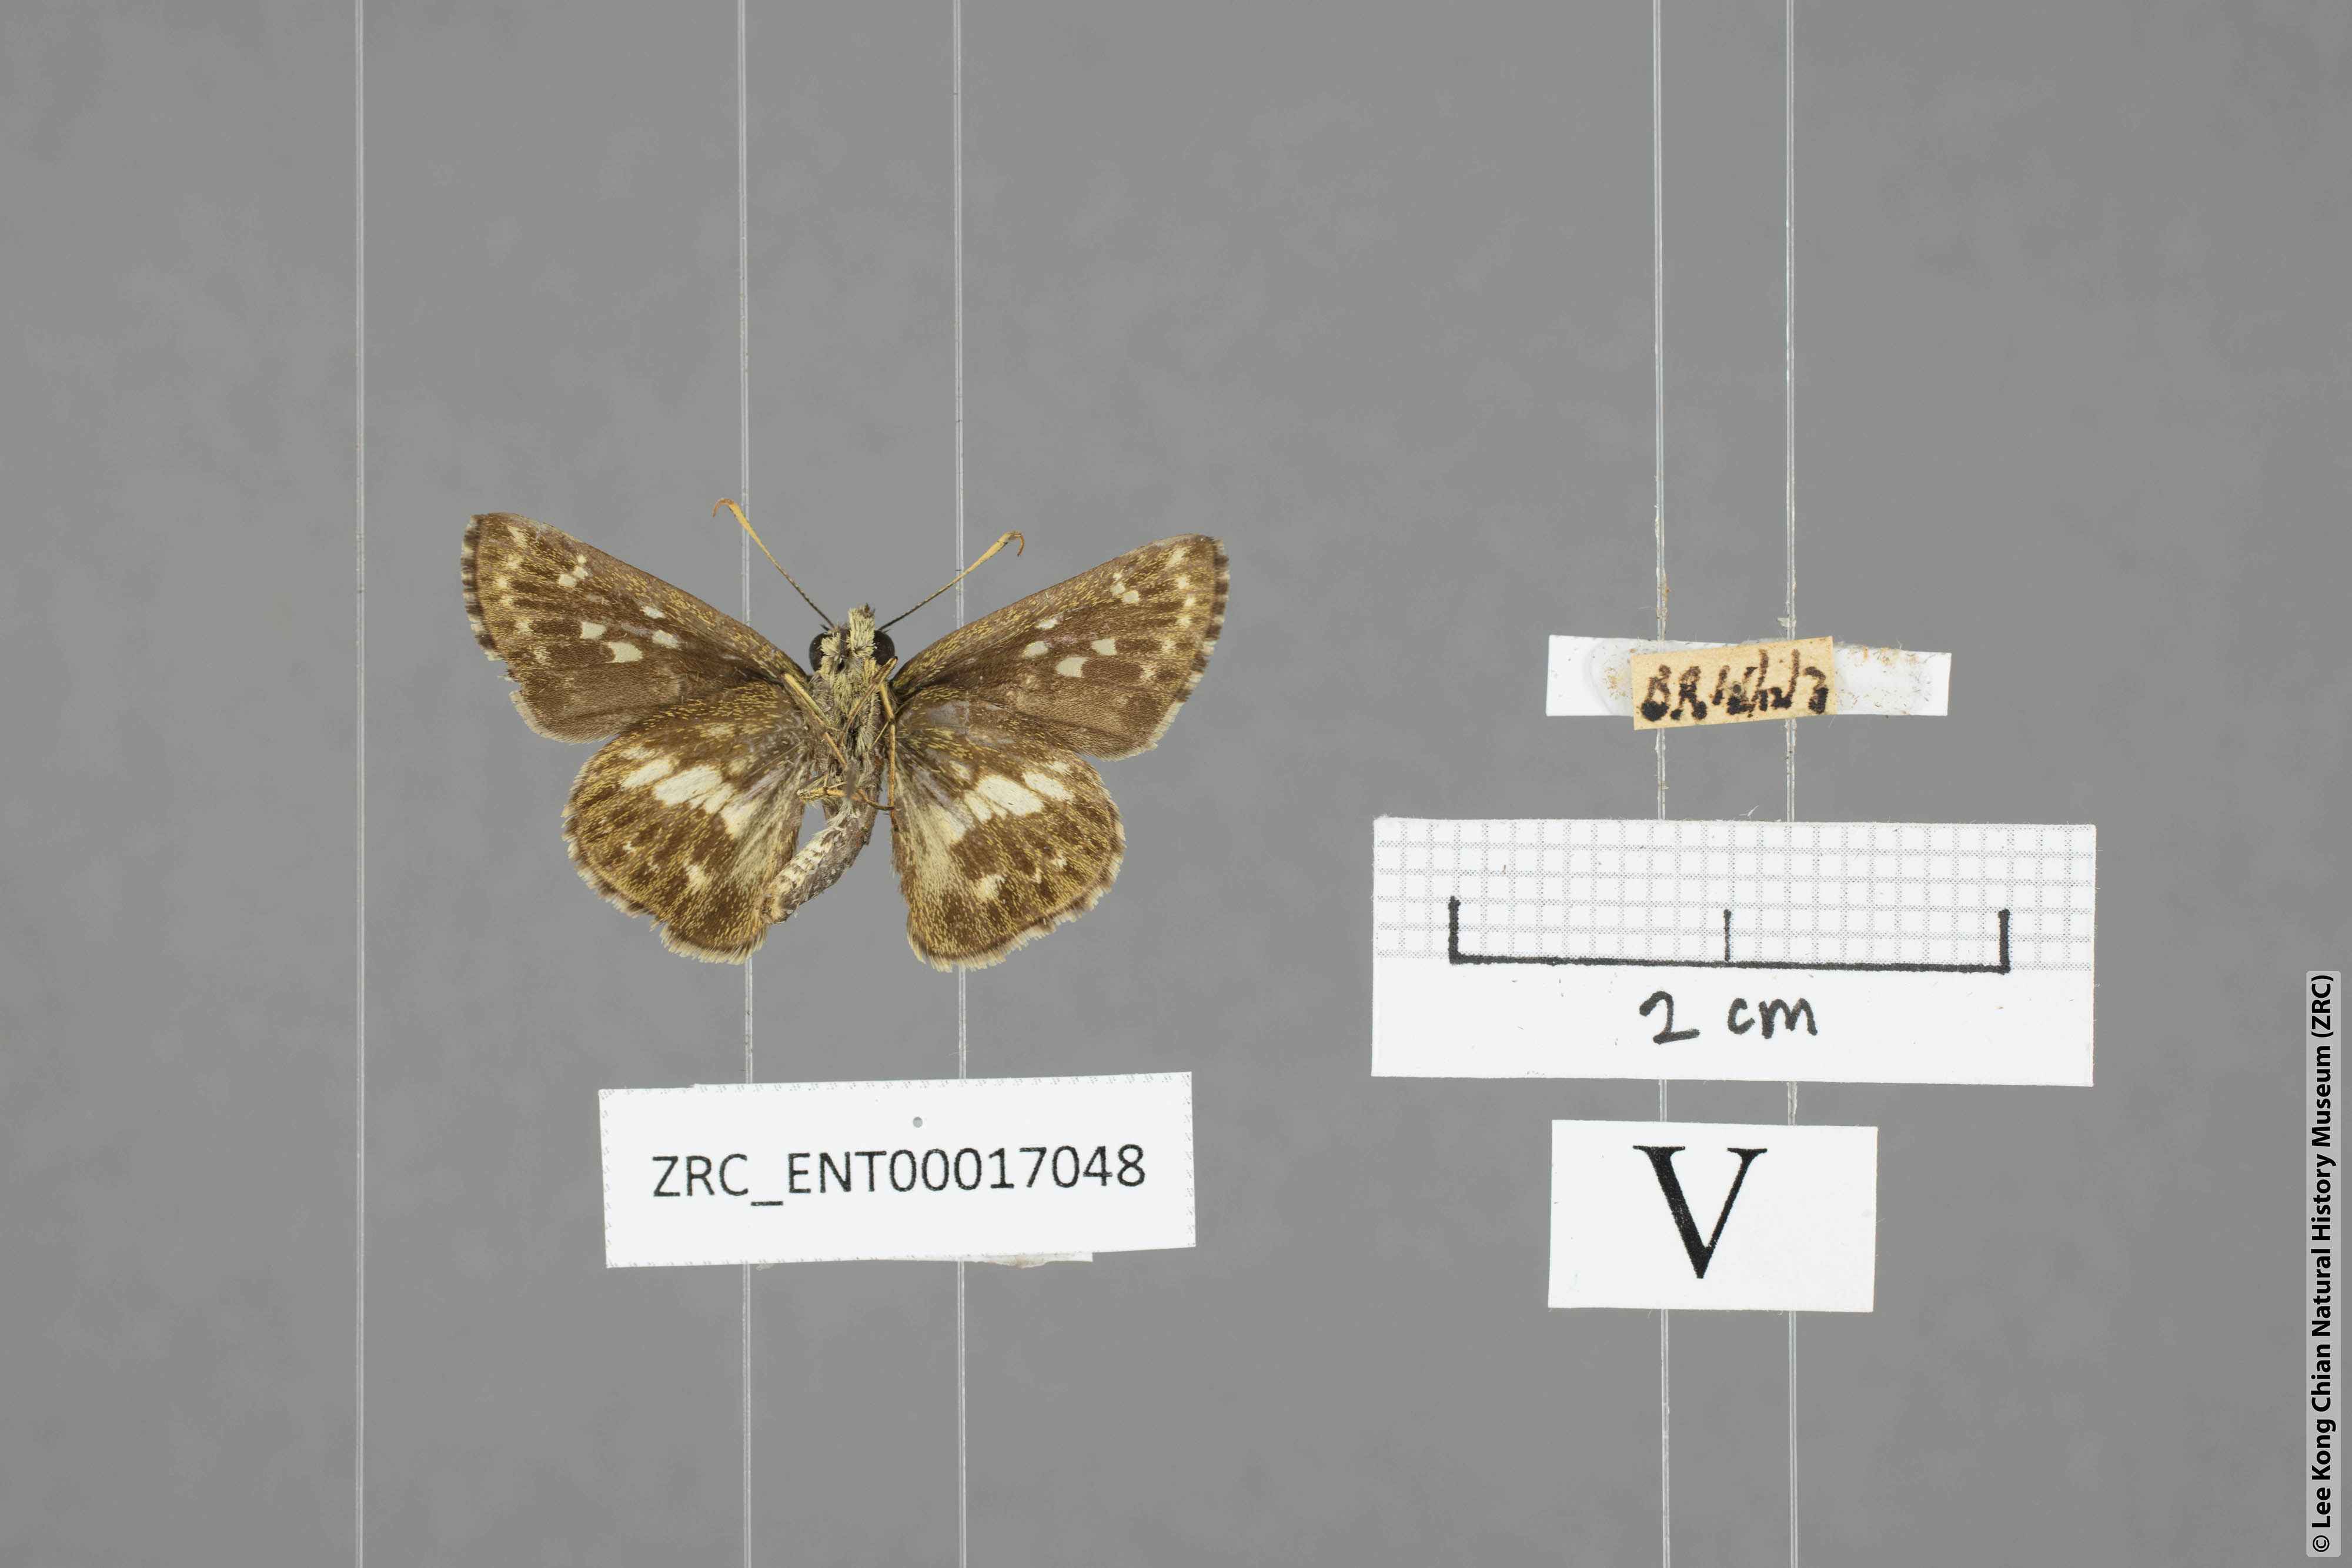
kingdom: Animalia
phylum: Arthropoda
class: Insecta
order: Lepidoptera
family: Hesperiidae
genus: Halpe
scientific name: Halpe porus
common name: Moore's ace
